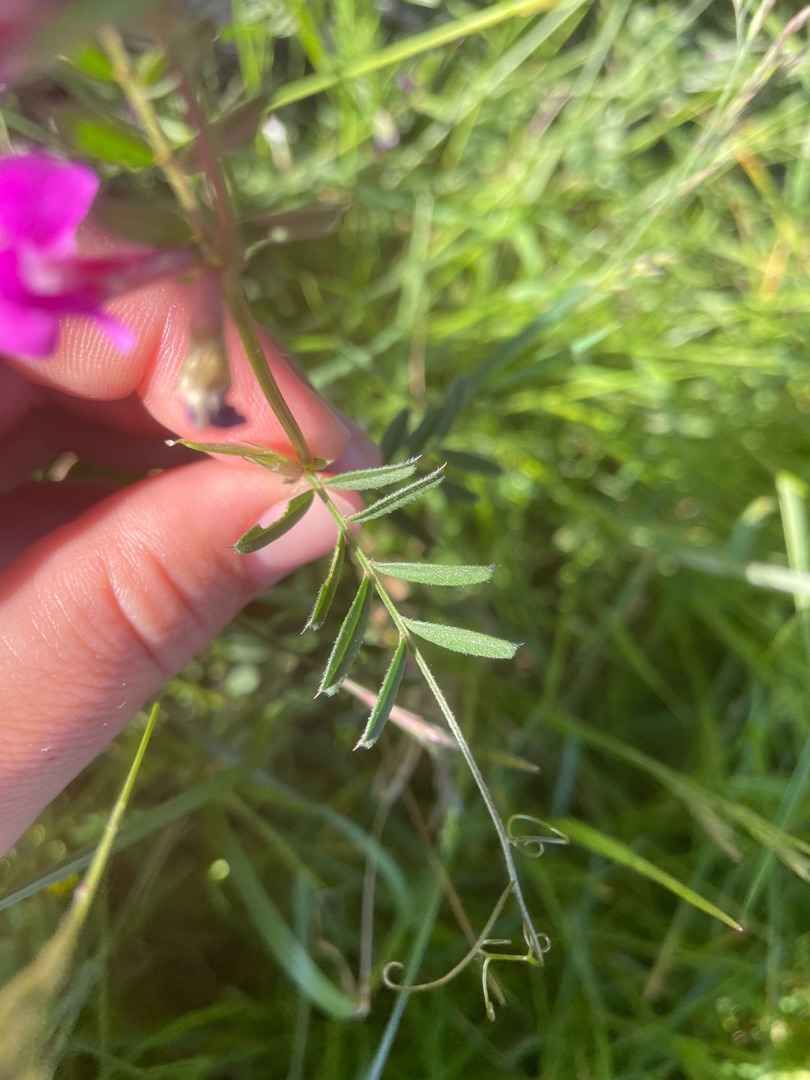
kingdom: Plantae
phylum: Tracheophyta
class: Magnoliopsida
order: Fabales
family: Fabaceae
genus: Vicia
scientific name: Vicia sativa
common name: Smalbladet vikke
